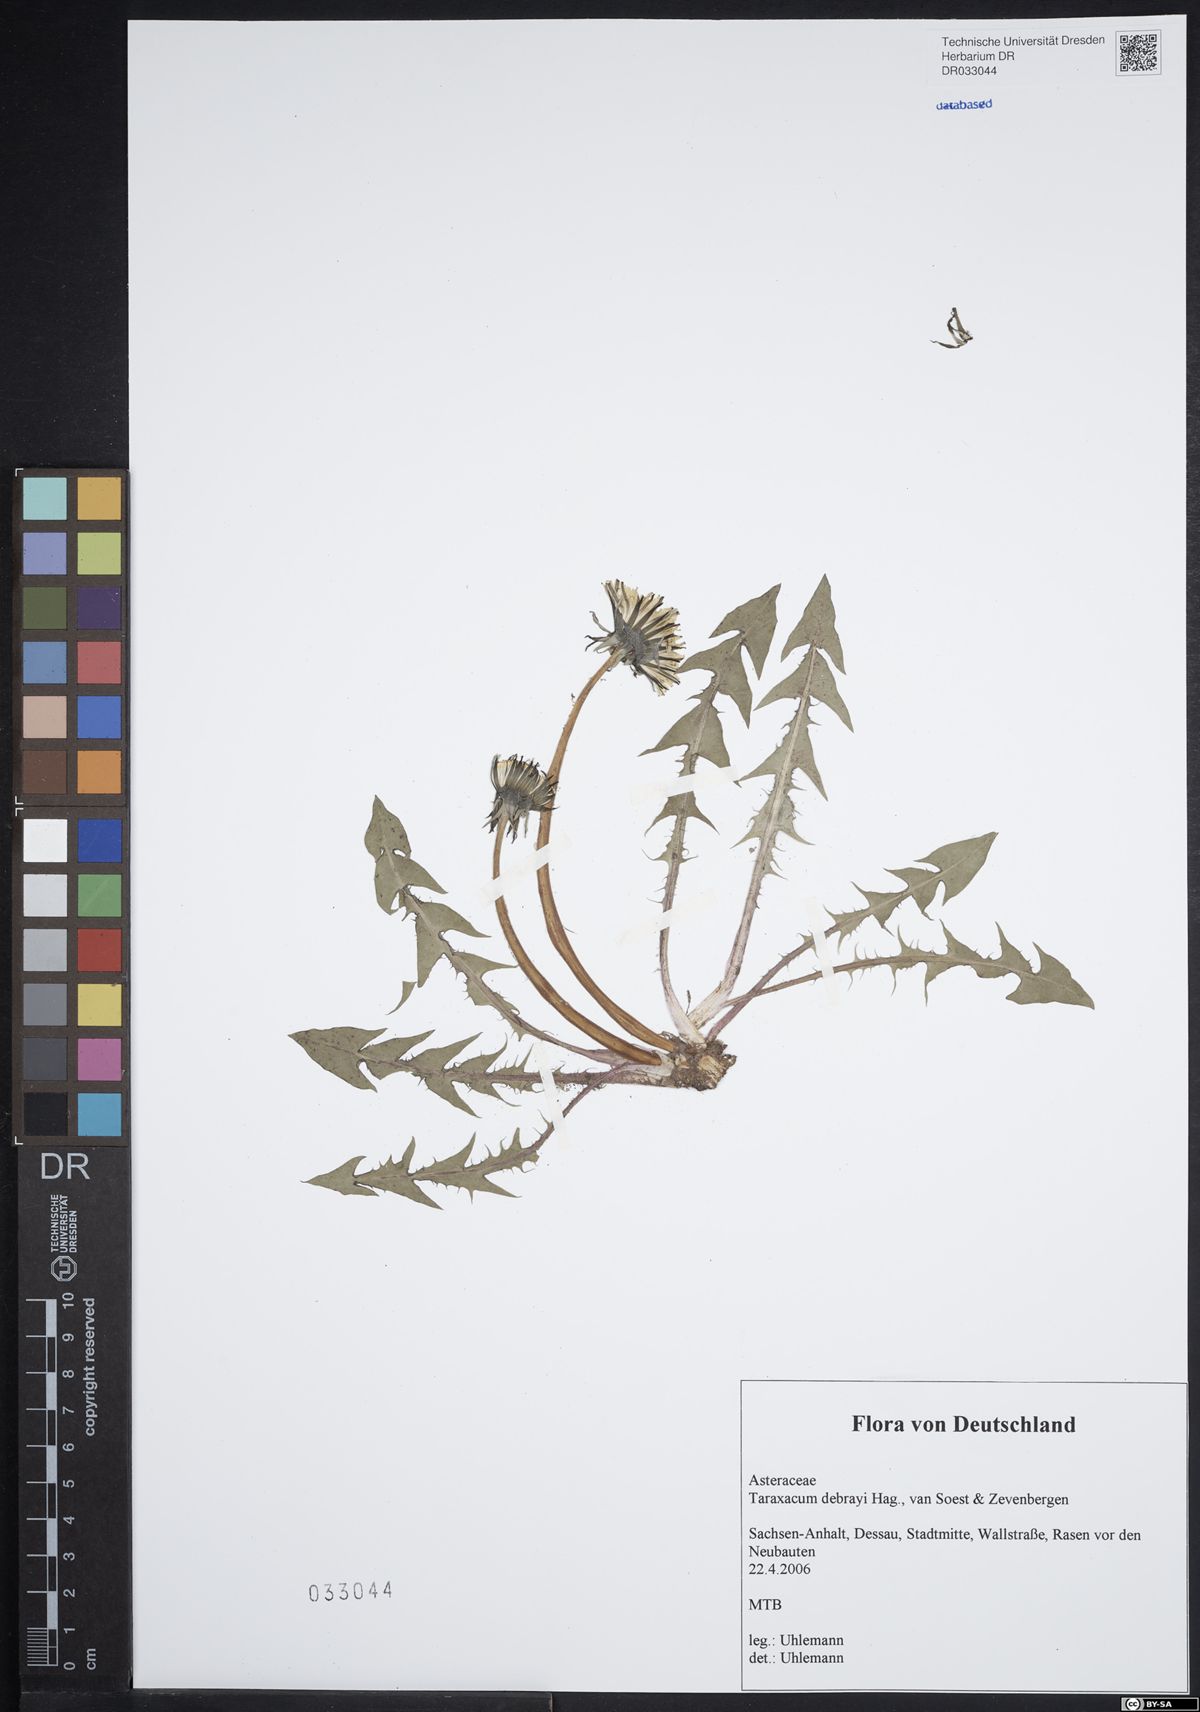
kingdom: Plantae
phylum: Tracheophyta
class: Magnoliopsida
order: Asterales
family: Asteraceae
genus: Taraxacum
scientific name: Taraxacum debrayi
